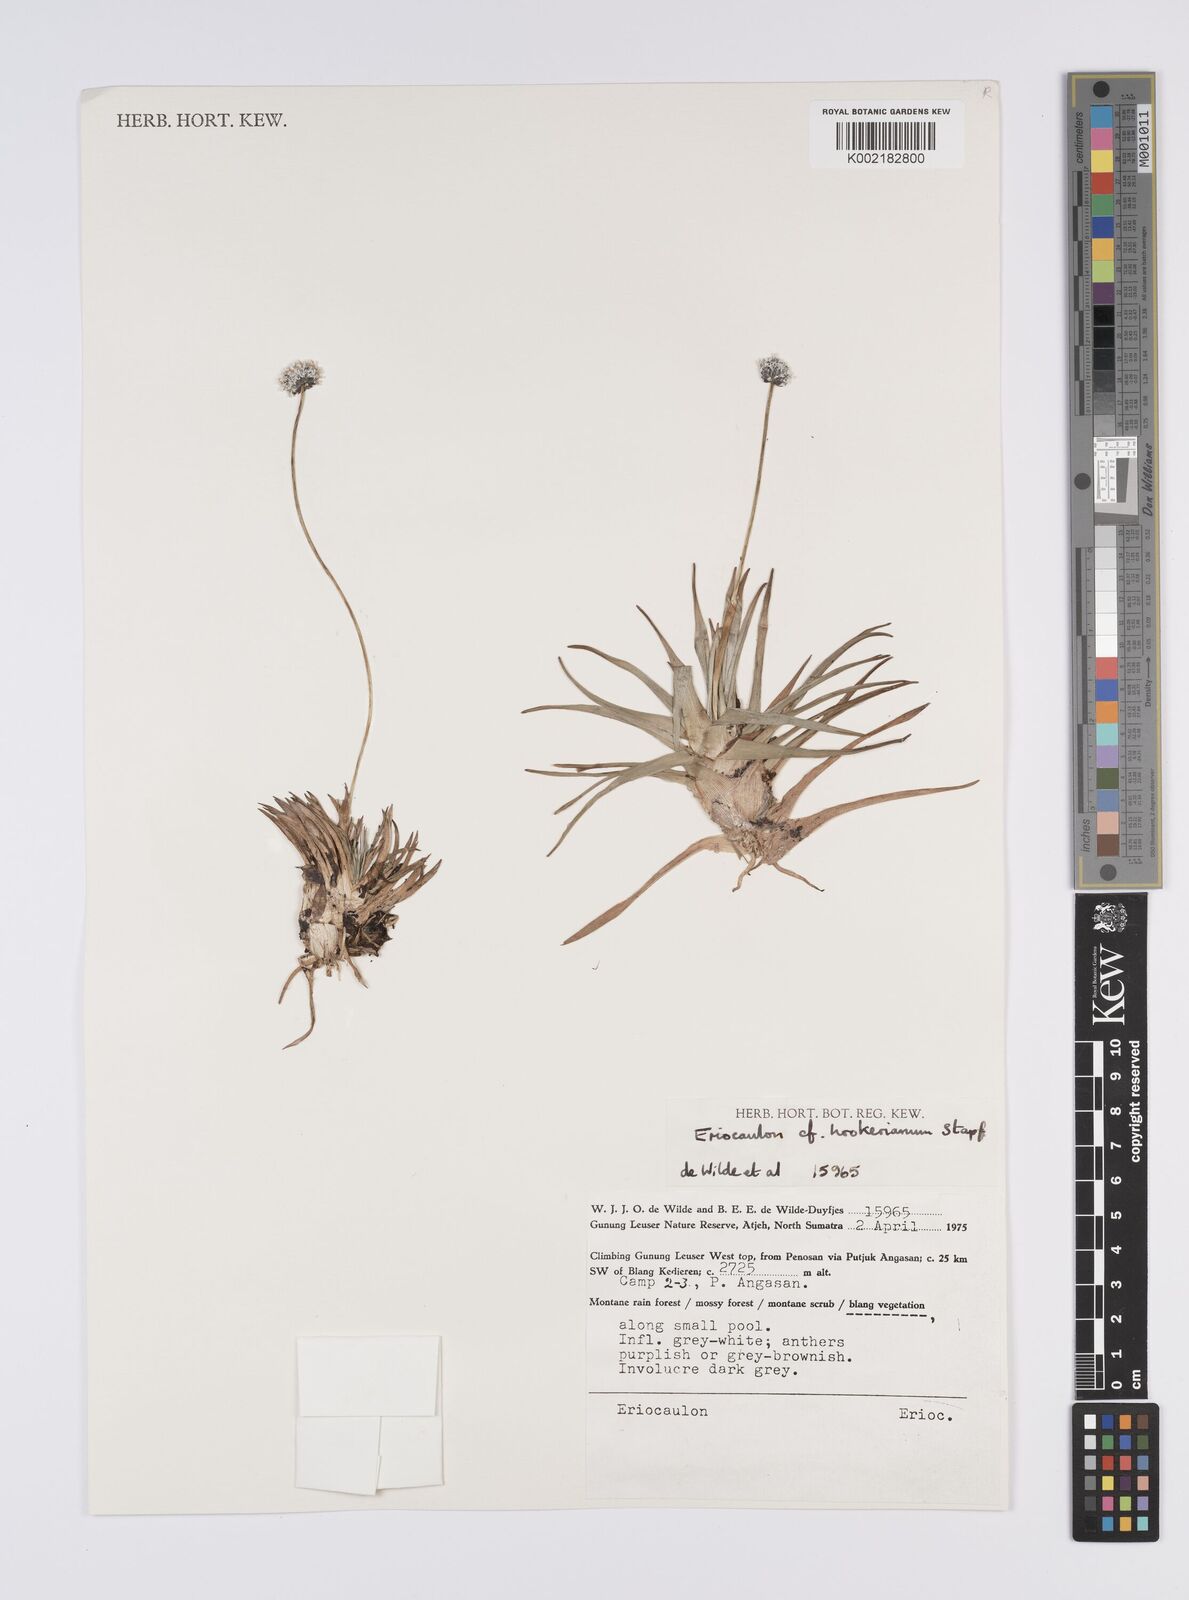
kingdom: Plantae
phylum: Tracheophyta
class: Liliopsida
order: Poales
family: Eriocaulaceae
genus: Eriocaulon
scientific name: Eriocaulon hookerianum
